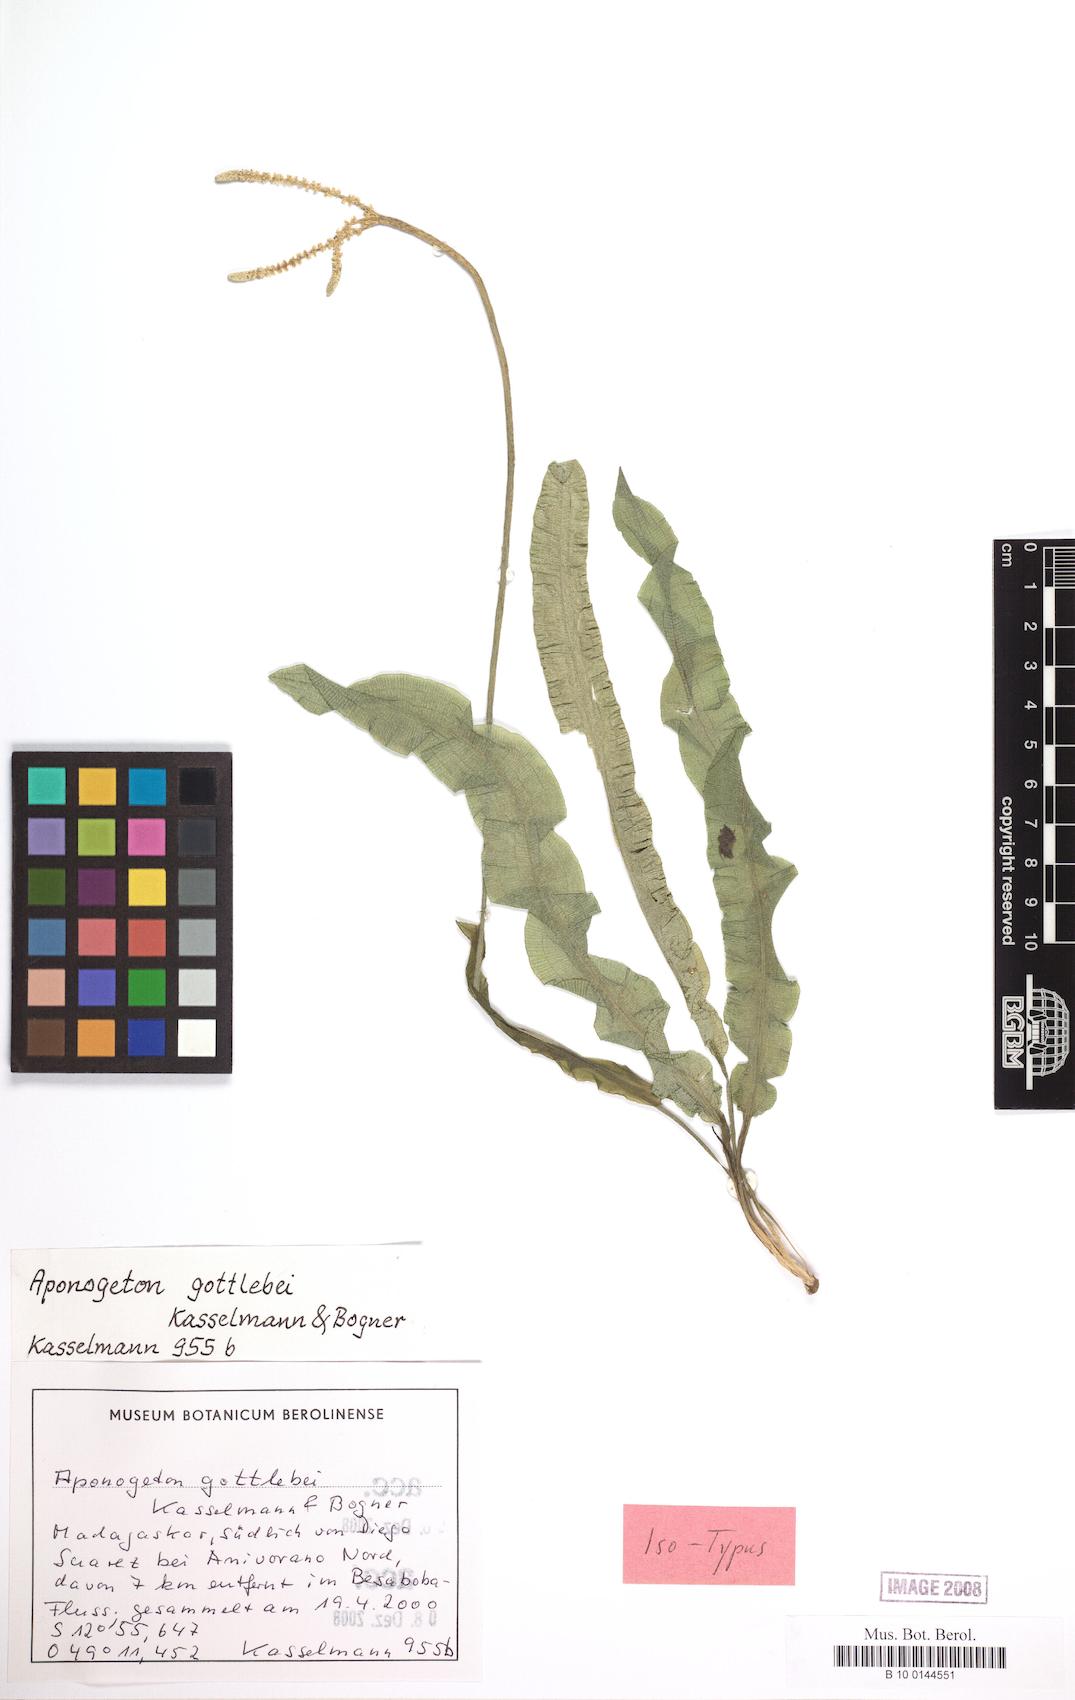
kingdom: Plantae
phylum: Tracheophyta
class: Liliopsida
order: Alismatales
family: Aponogetonaceae
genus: Aponogeton
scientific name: Aponogeton gottlebei
